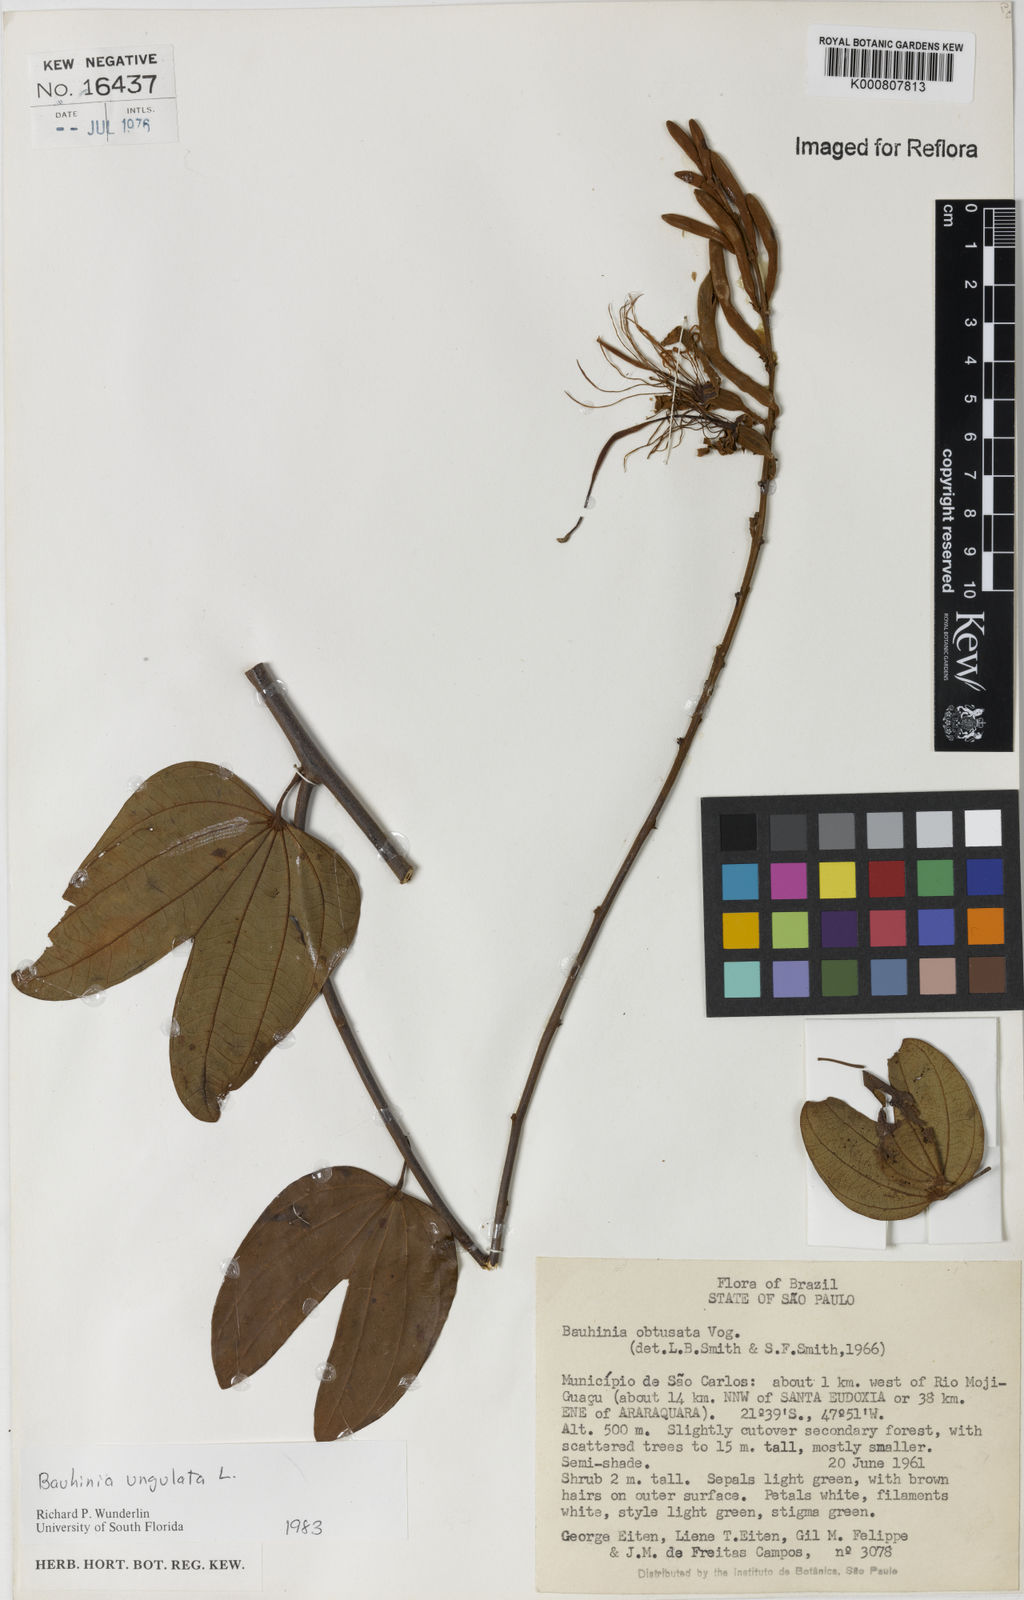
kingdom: Plantae
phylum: Tracheophyta
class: Magnoliopsida
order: Fabales
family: Fabaceae
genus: Bauhinia
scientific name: Bauhinia ungulata
